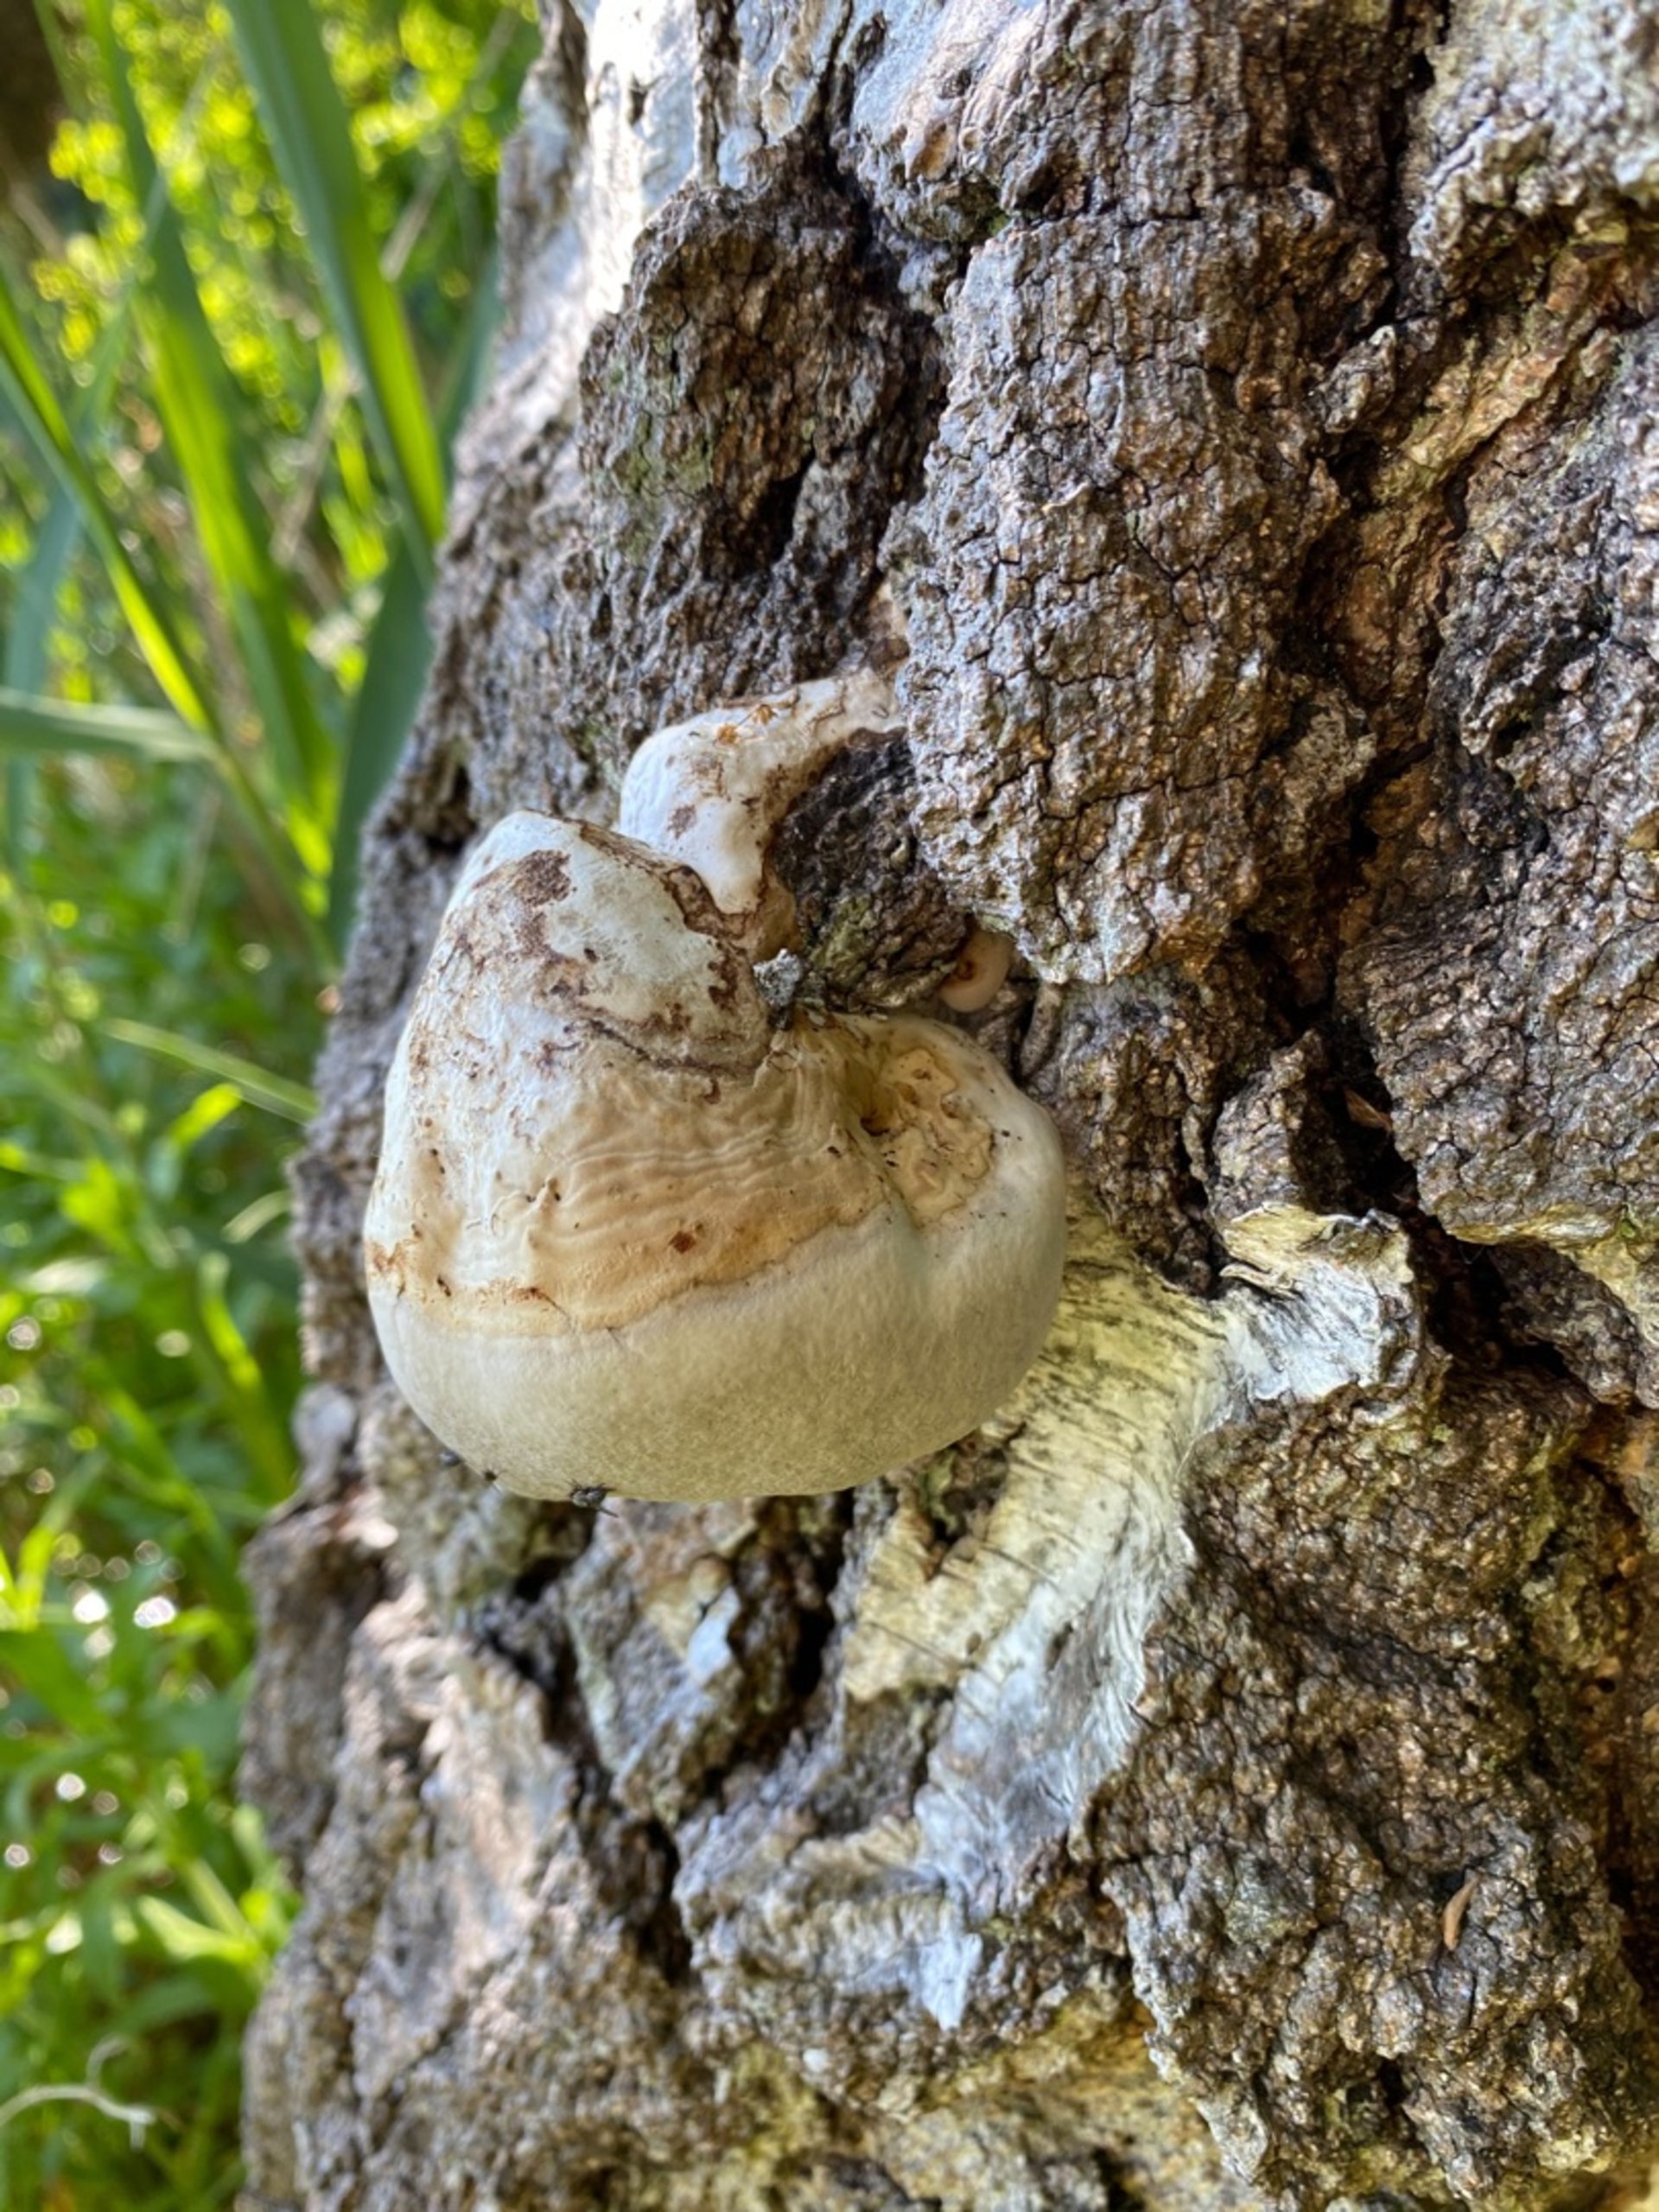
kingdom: Fungi
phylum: Basidiomycota
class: Agaricomycetes
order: Polyporales
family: Polyporaceae
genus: Fomes
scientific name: Fomes fomentarius
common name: Tøndersvamp
